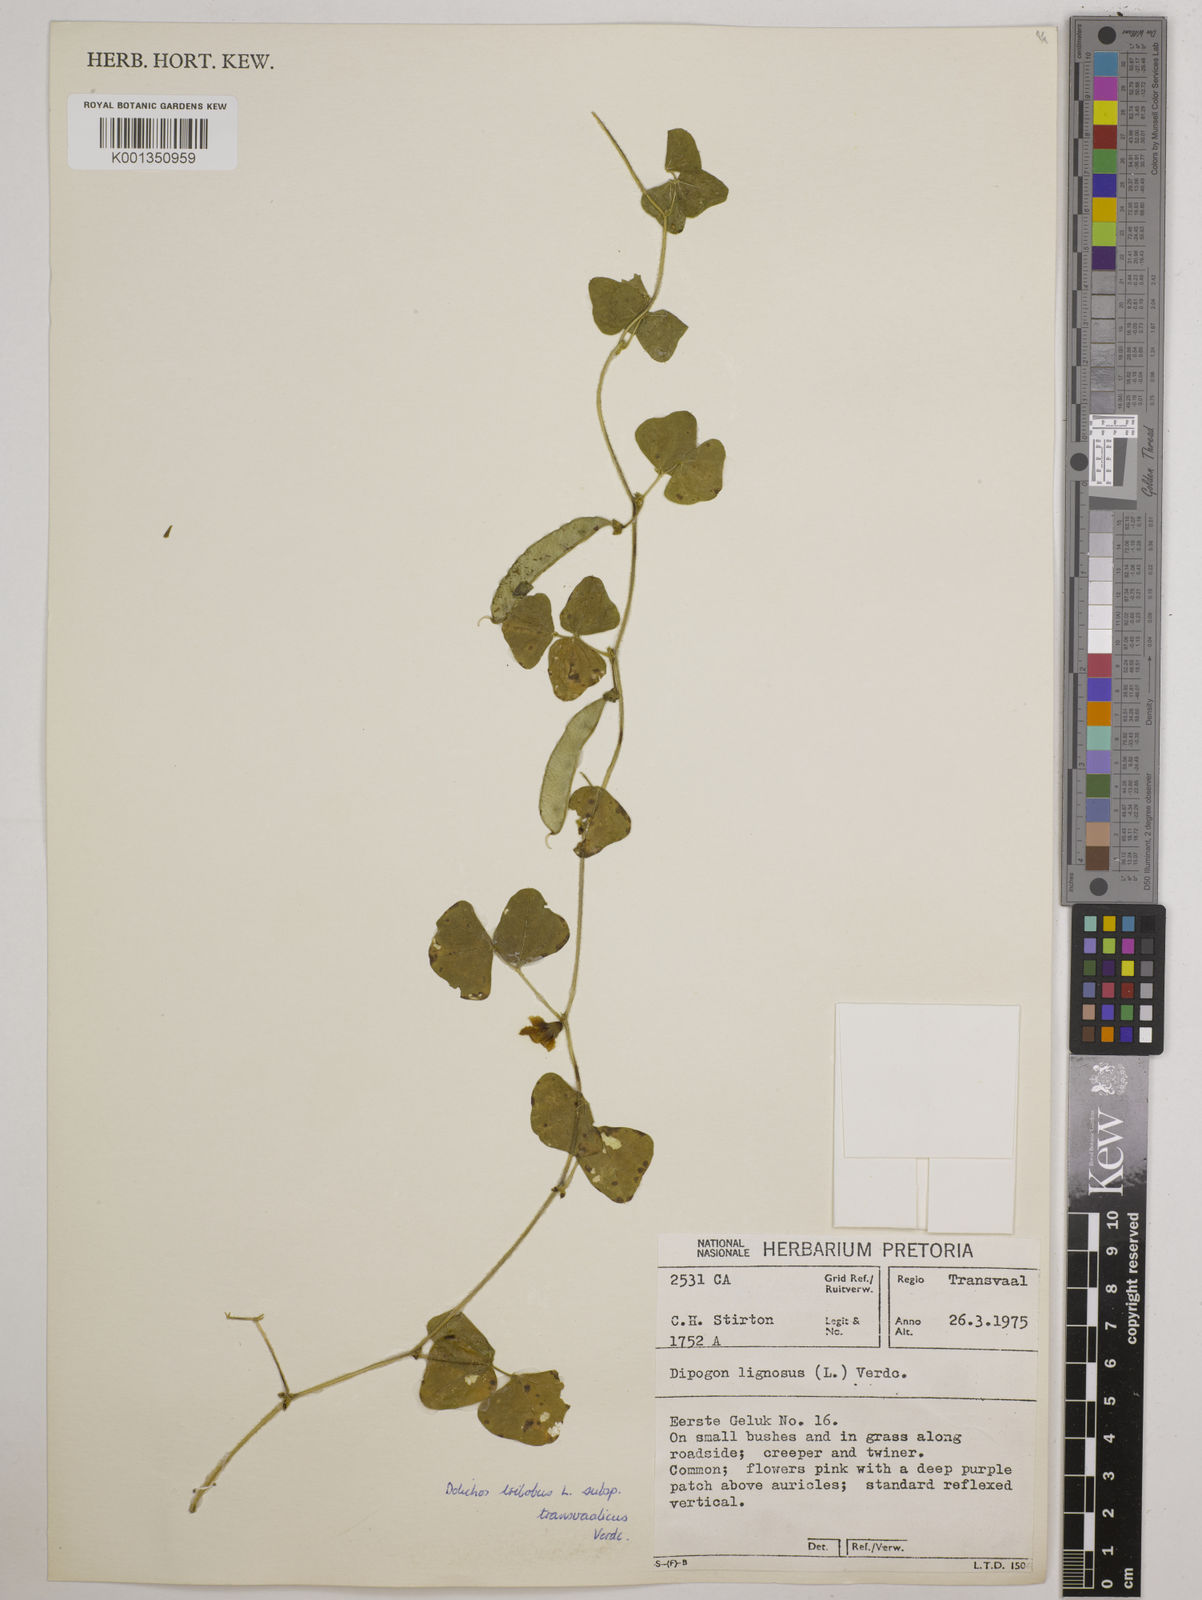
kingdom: Plantae
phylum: Tracheophyta
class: Magnoliopsida
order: Fabales
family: Fabaceae
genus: Dolichos
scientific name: Dolichos
